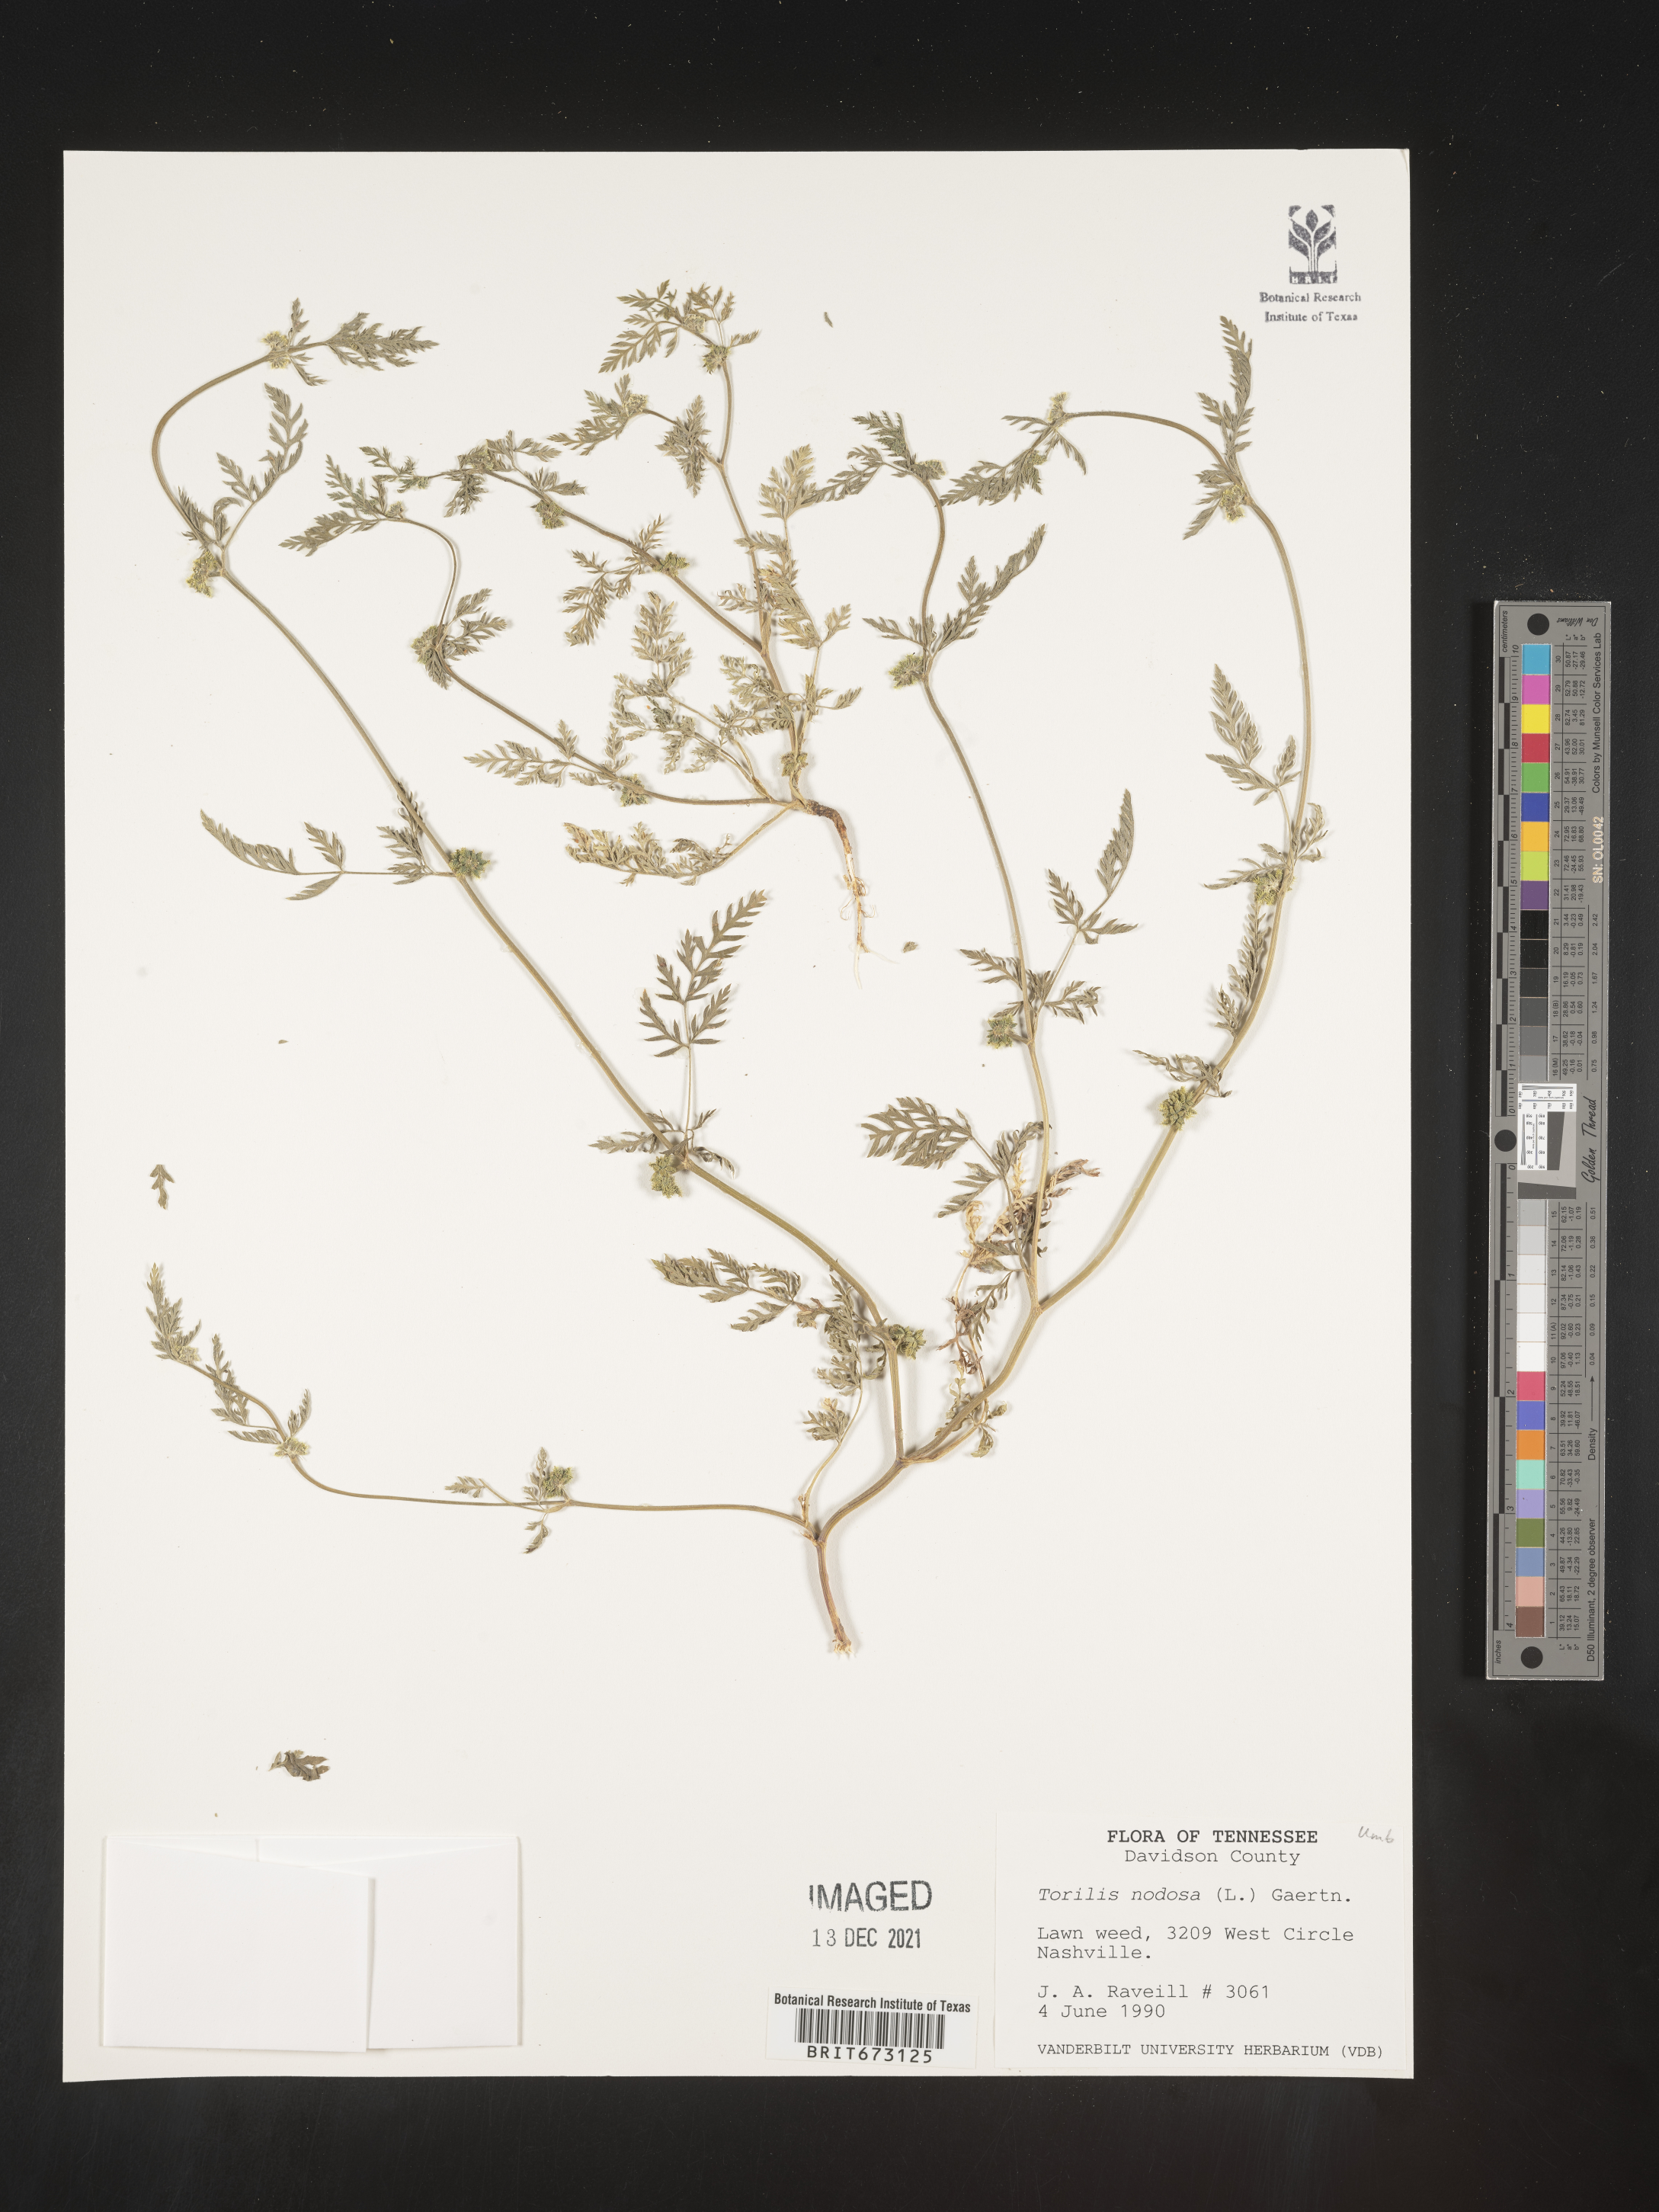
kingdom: Plantae
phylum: Tracheophyta
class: Magnoliopsida
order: Apiales
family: Apiaceae
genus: Torilis
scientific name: Torilis nodosa
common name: Knotted hedge-parsley
